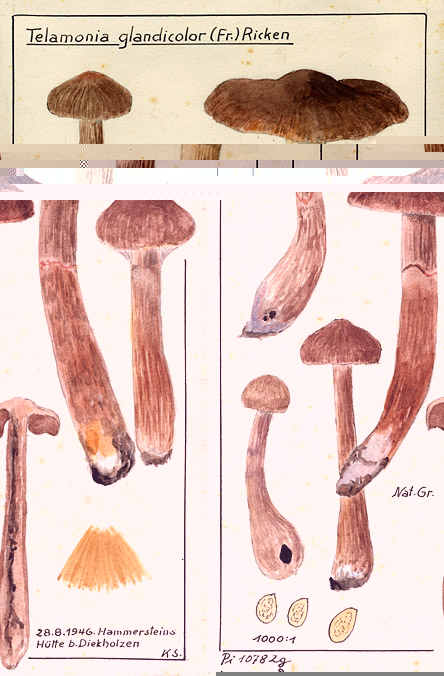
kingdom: Fungi
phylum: Basidiomycota
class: Agaricomycetes
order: Agaricales
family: Cortinariaceae
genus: Cortinarius
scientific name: Cortinarius glandicolor
